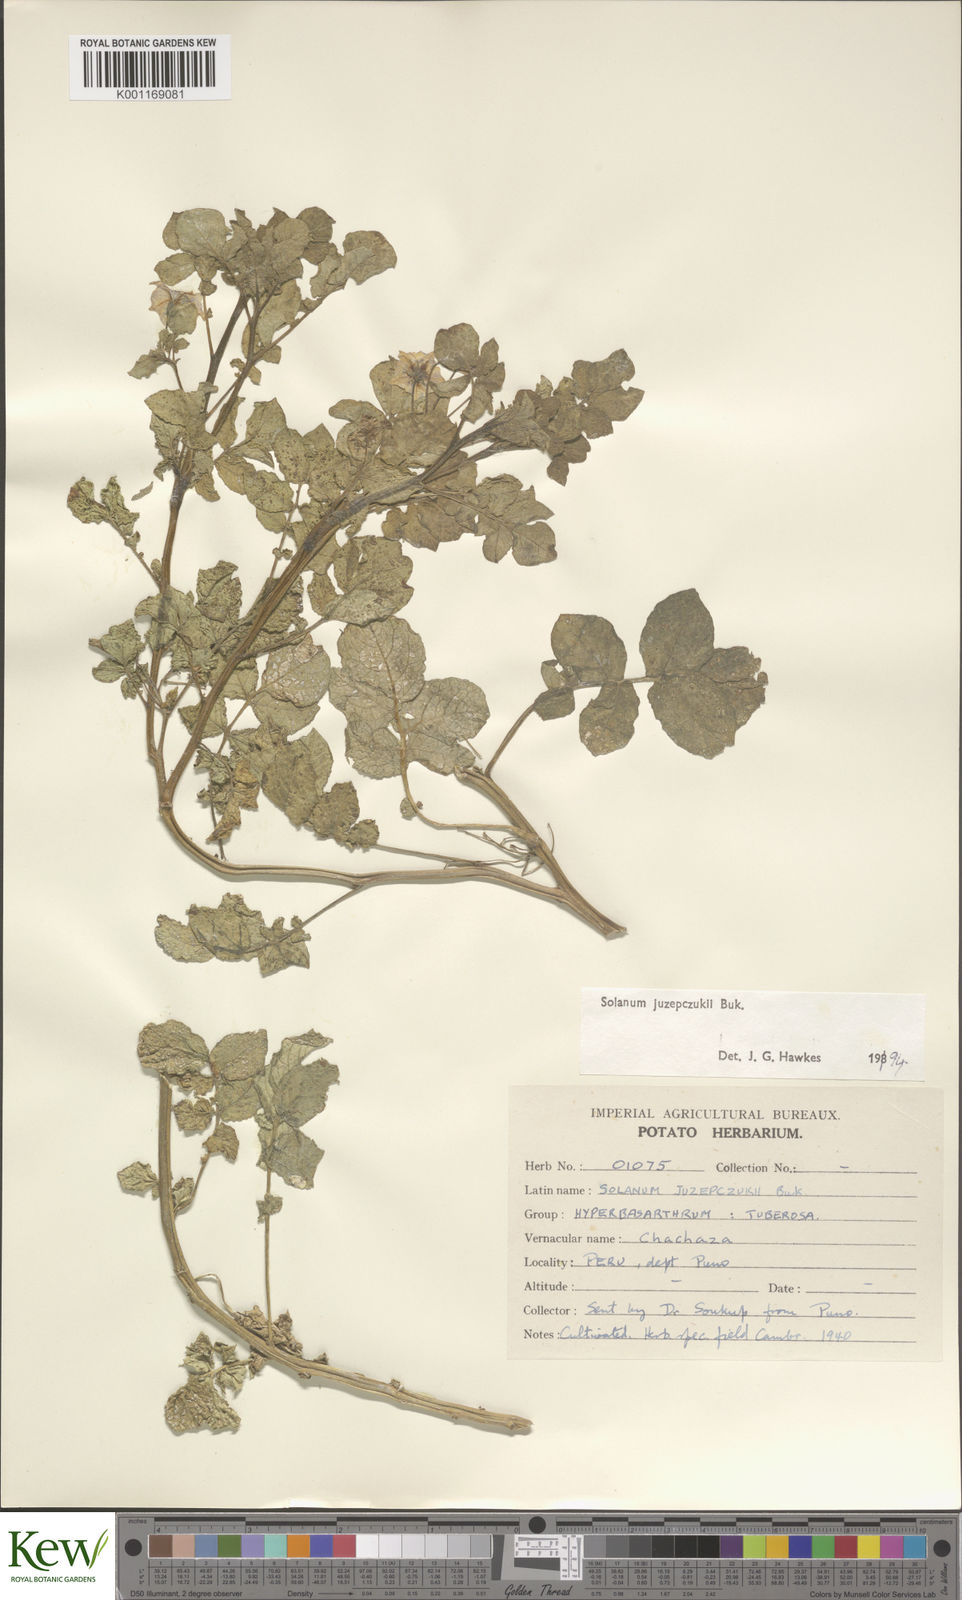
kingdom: Plantae
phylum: Tracheophyta
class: Magnoliopsida
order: Solanales
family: Solanaceae
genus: Solanum
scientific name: Solanum juzepczukii
